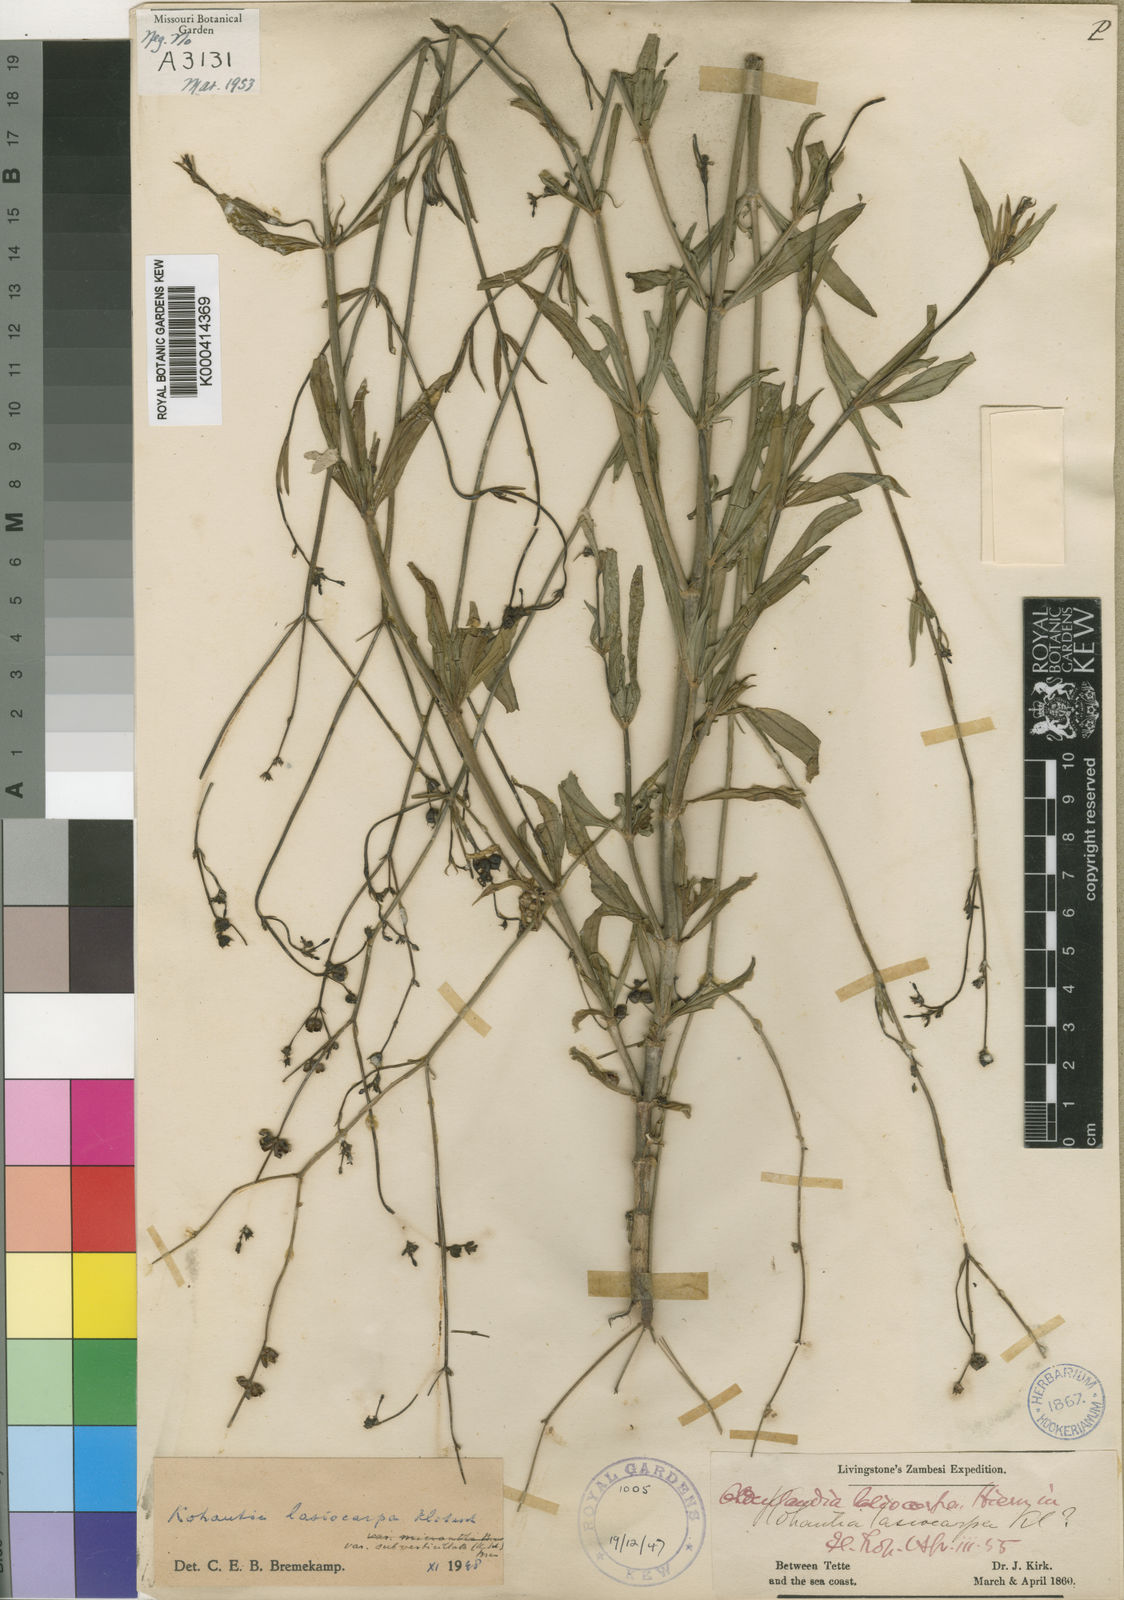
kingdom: Plantae
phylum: Tracheophyta
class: Magnoliopsida
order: Gentianales
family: Rubiaceae
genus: Kohautia
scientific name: Kohautia subverticillata
